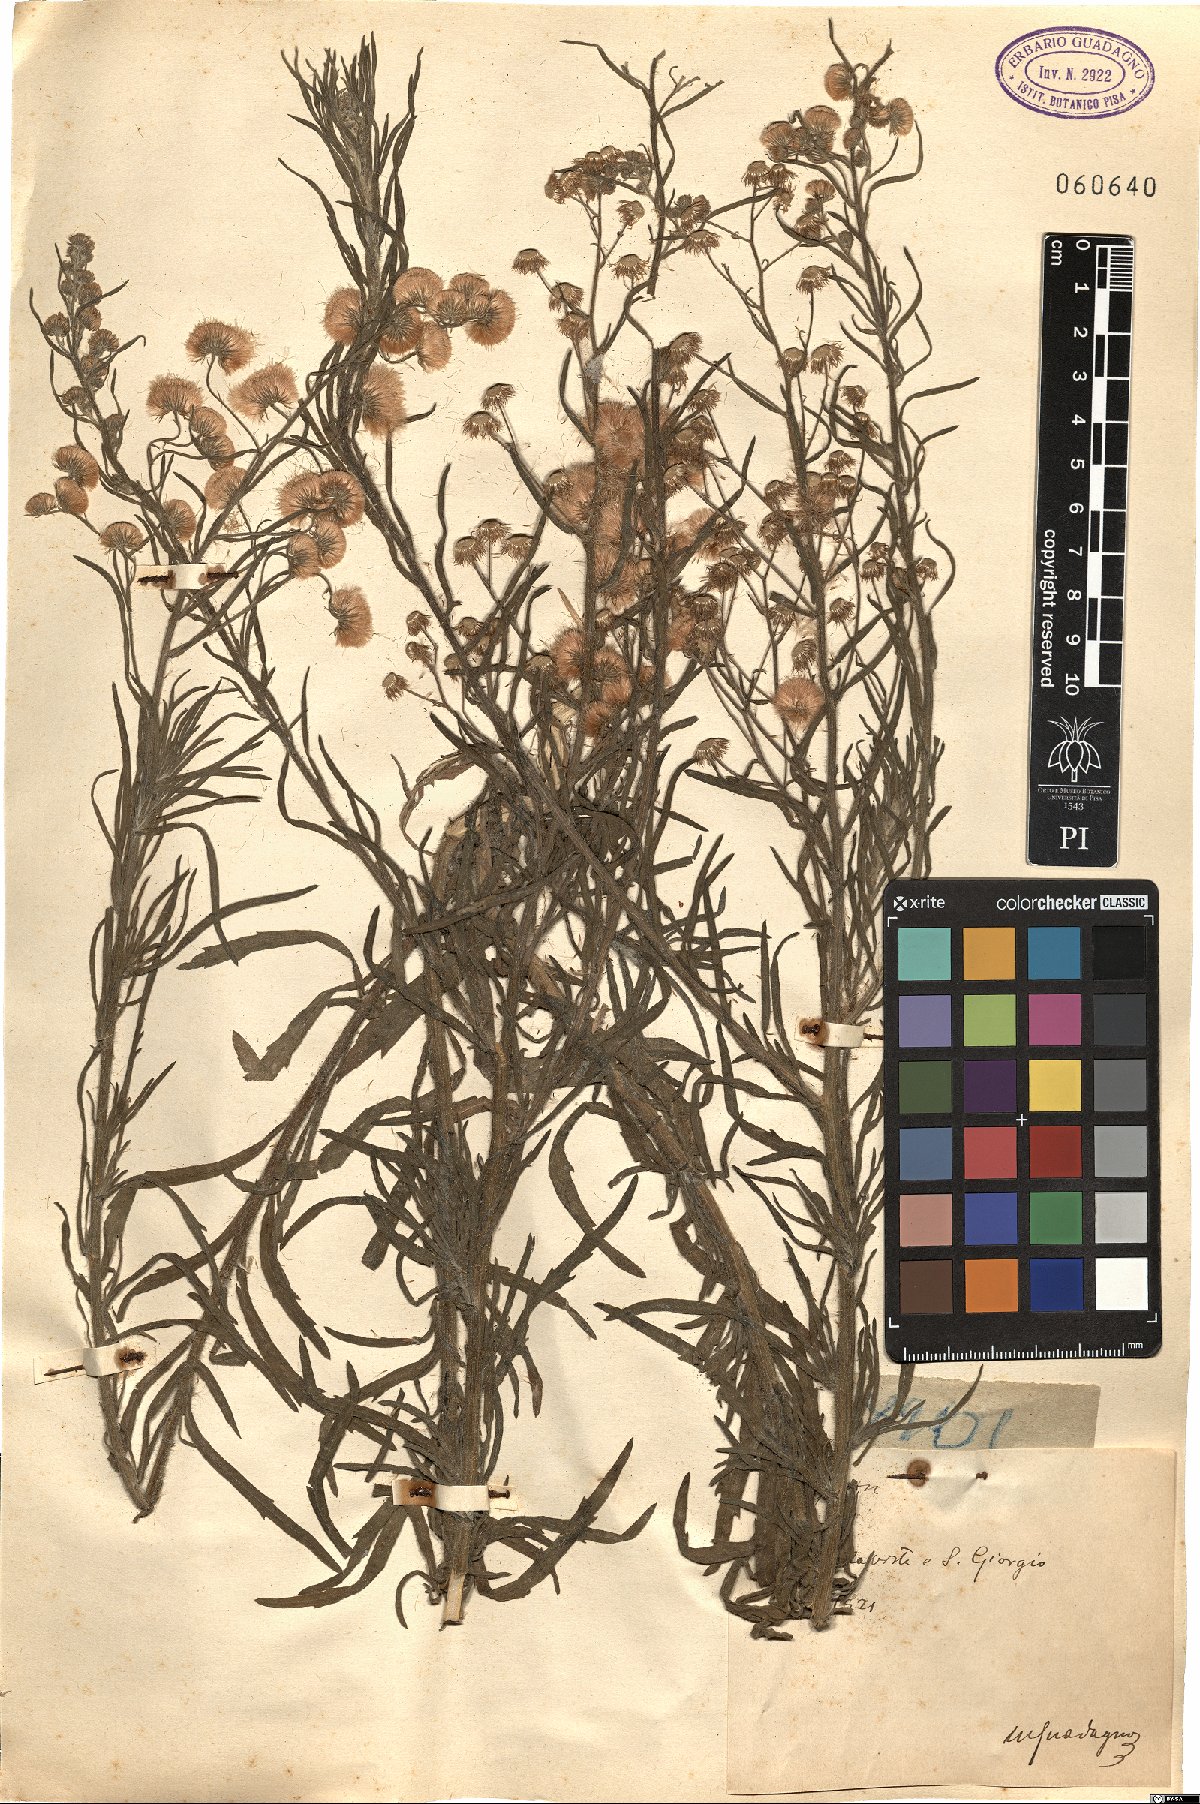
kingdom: Plantae
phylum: Tracheophyta
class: Magnoliopsida
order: Asterales
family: Asteraceae
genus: Erigeron
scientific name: Erigeron
